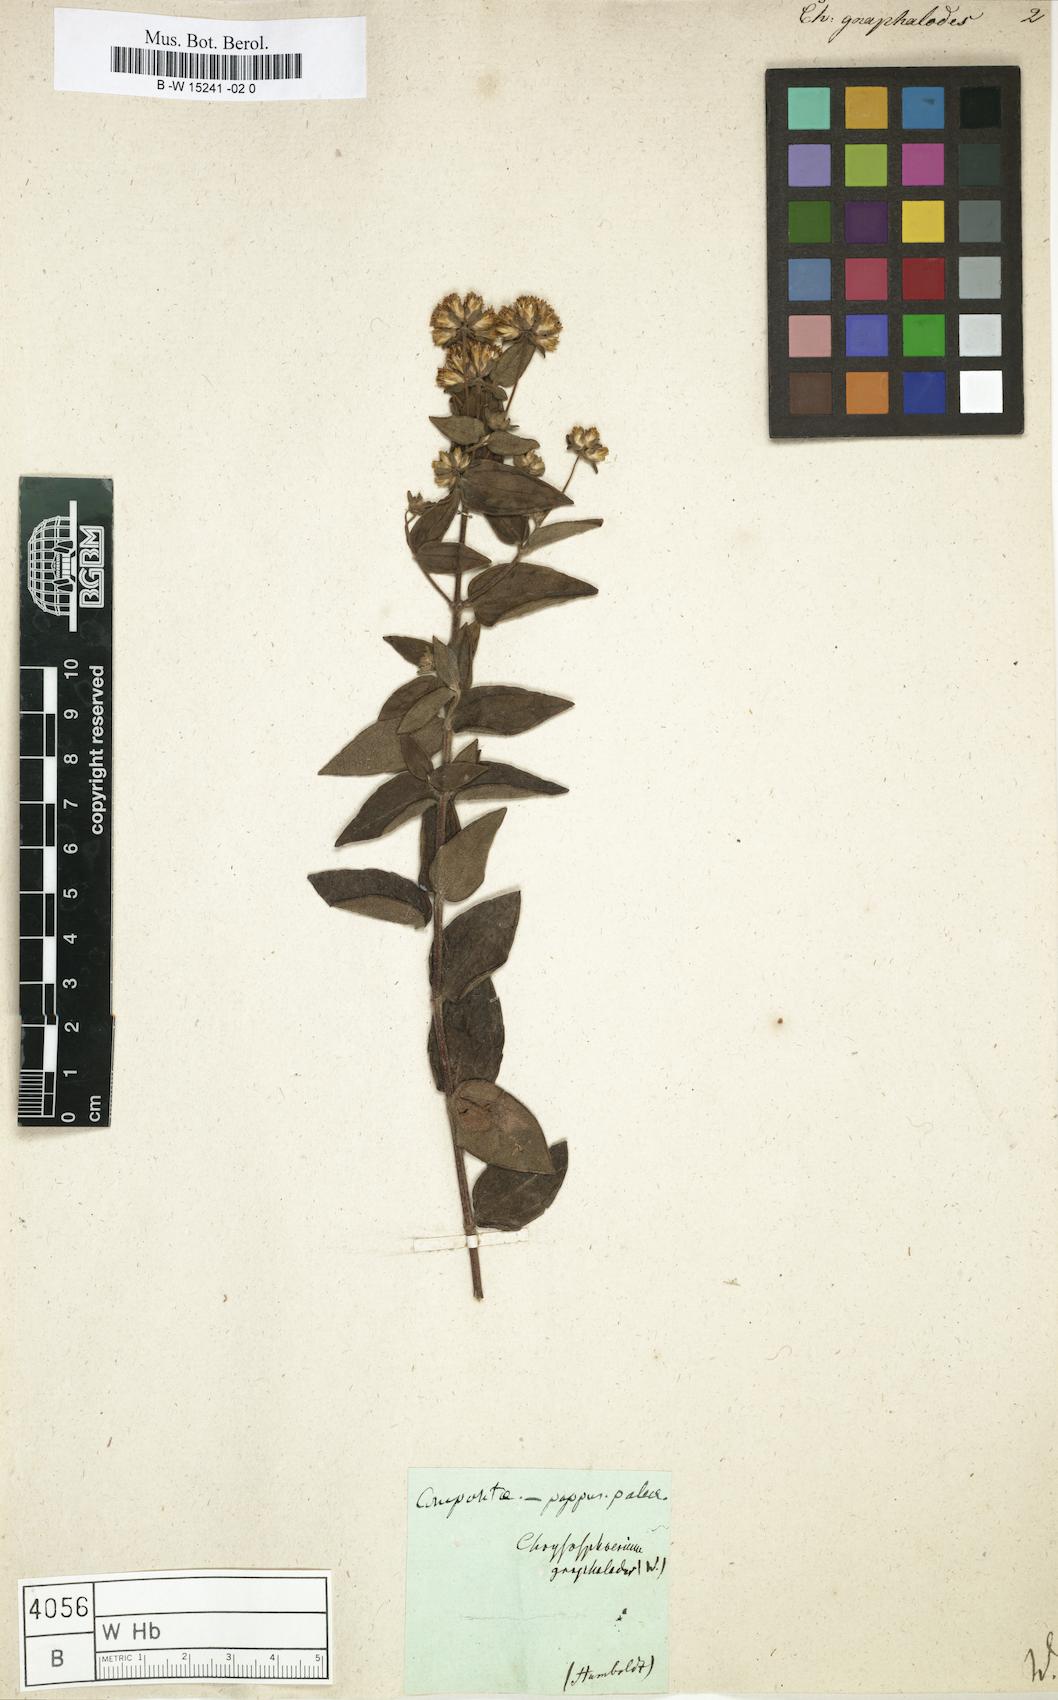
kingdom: Plantae
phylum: Tracheophyta
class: Magnoliopsida
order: Asterales
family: Asteraceae
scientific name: Asteraceae
